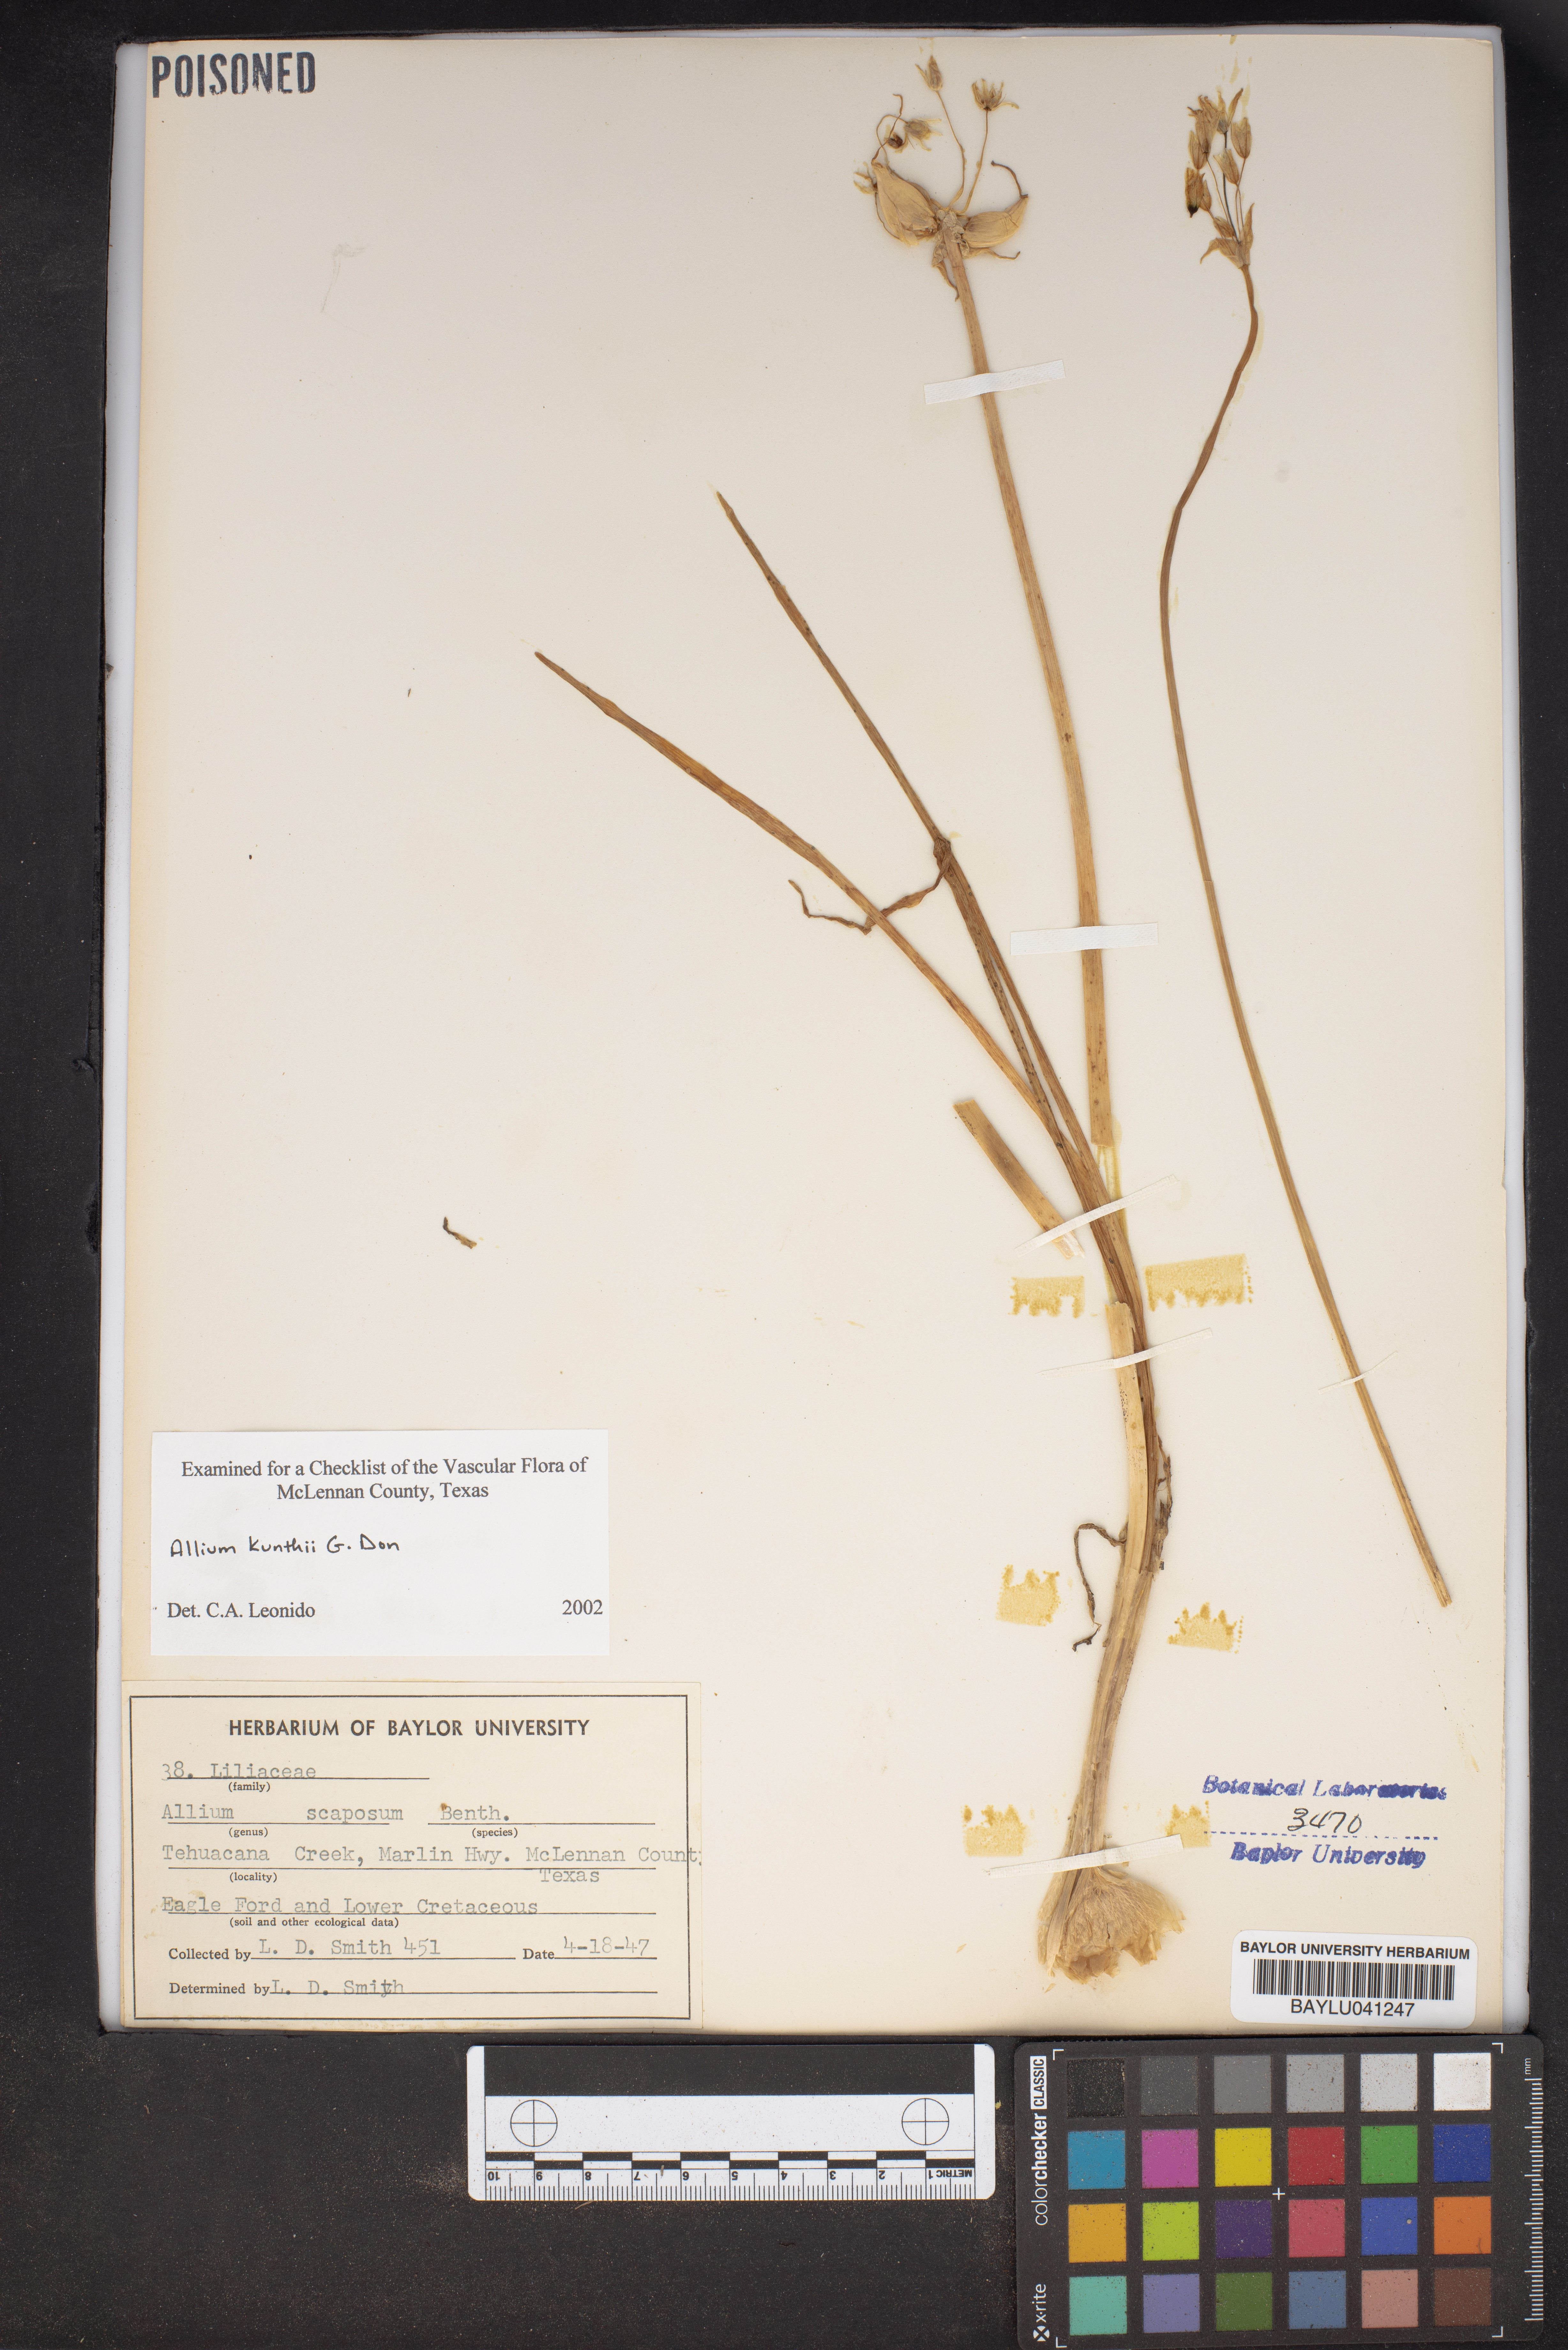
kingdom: Plantae
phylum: Tracheophyta
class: Liliopsida
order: Asparagales
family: Amaryllidaceae
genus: Allium
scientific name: Allium longifolium
